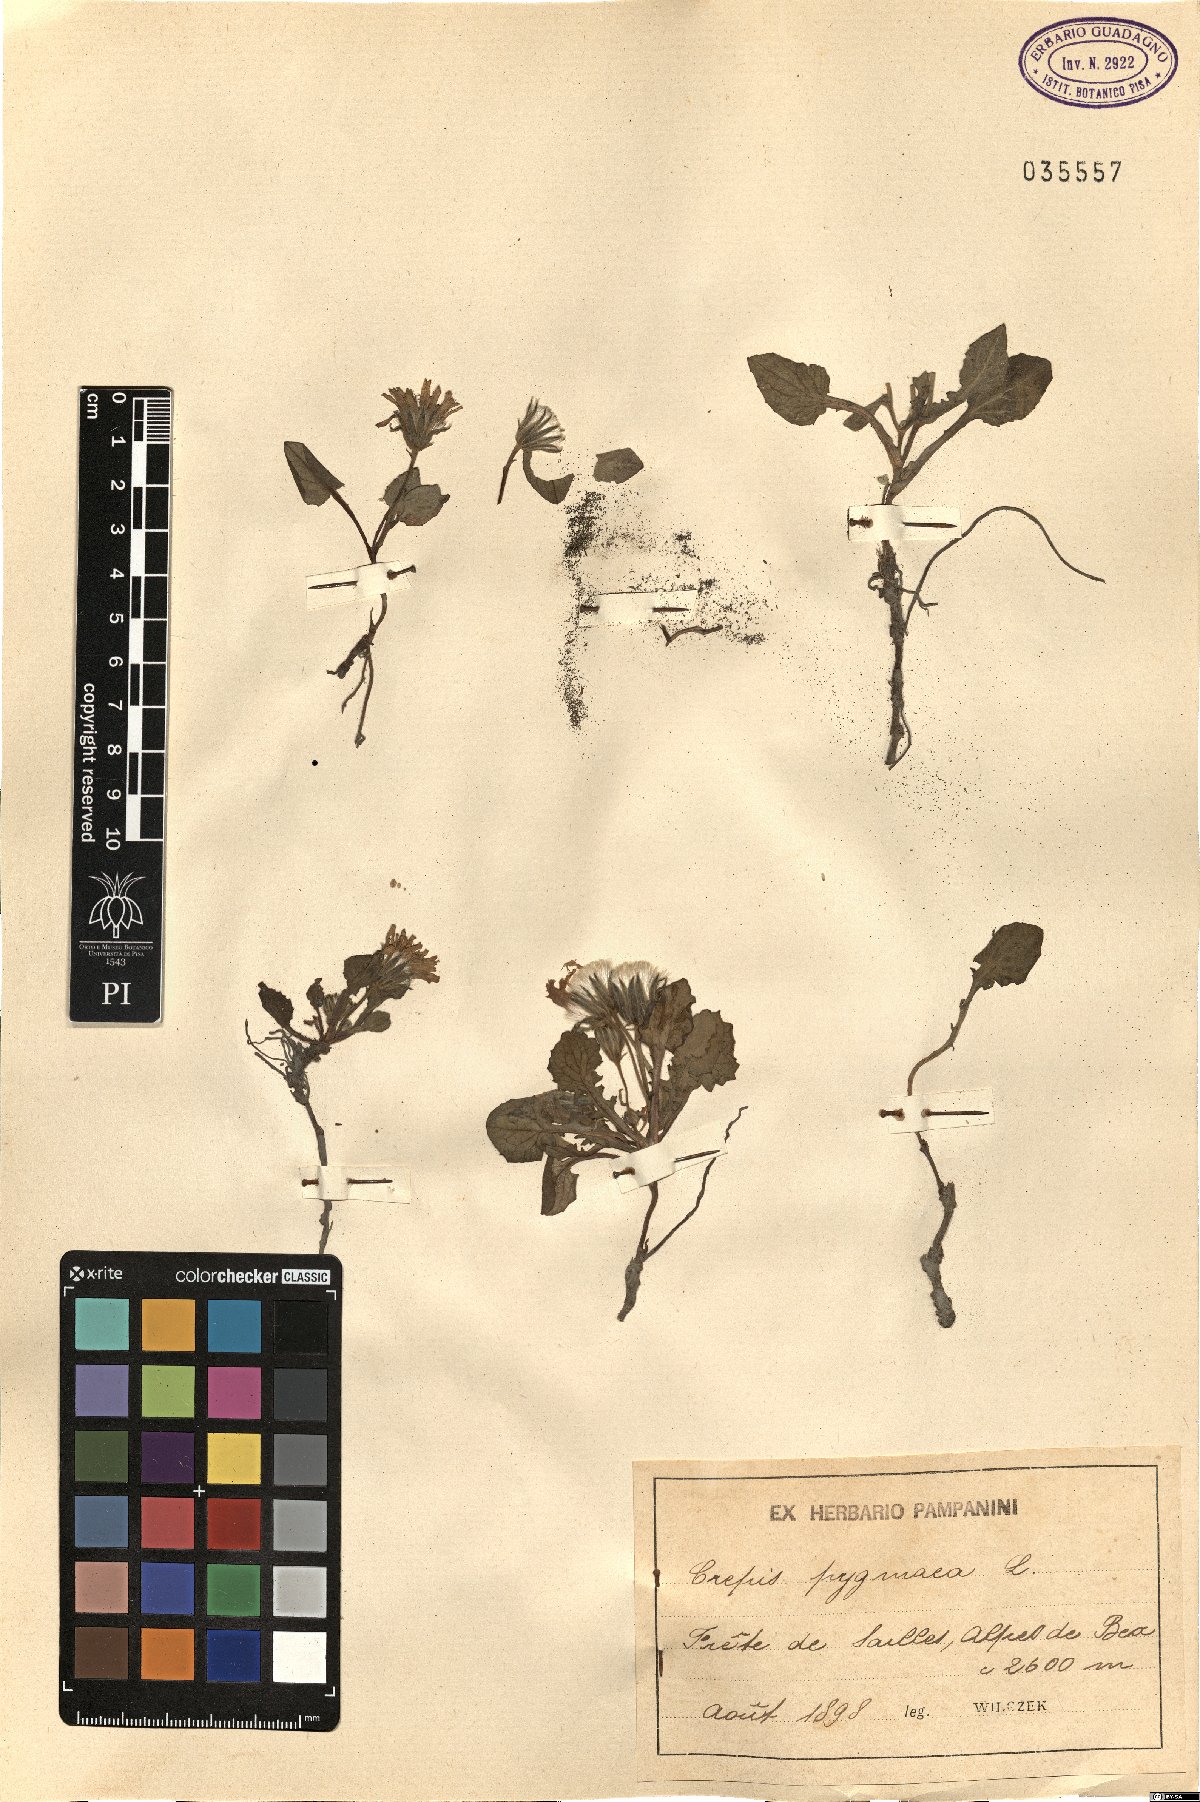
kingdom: Plantae
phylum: Tracheophyta
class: Magnoliopsida
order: Asterales
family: Asteraceae
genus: Crepis
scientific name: Crepis pygmaea
